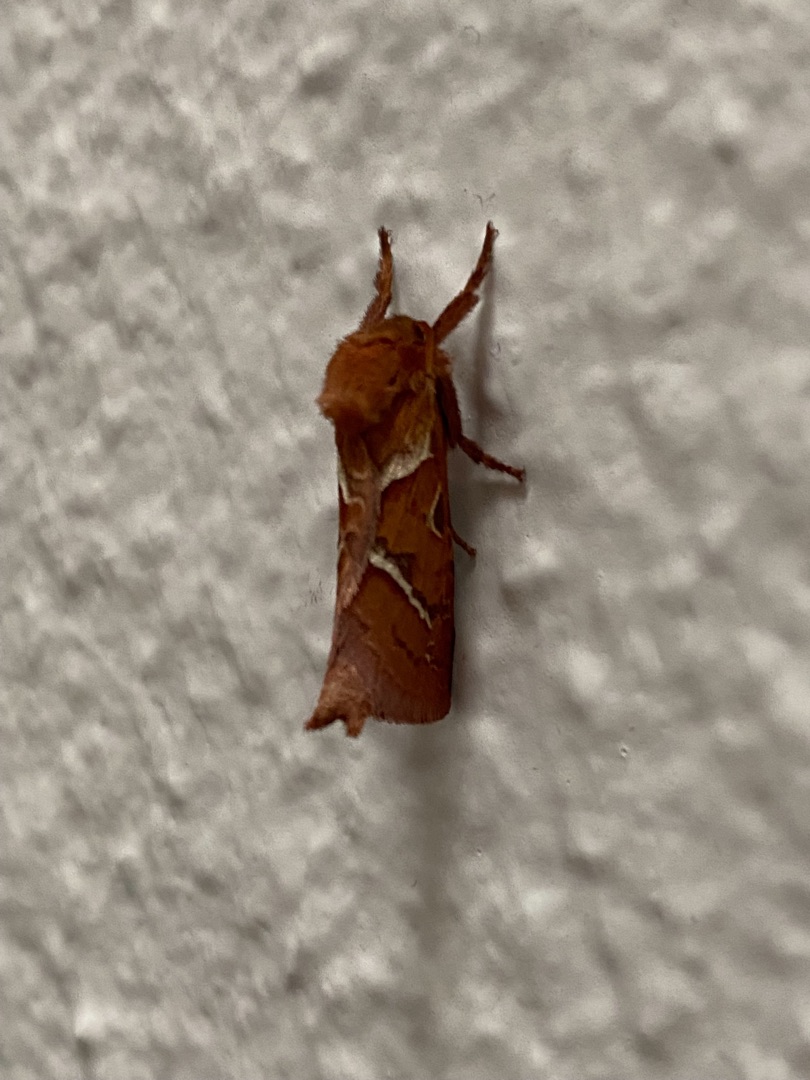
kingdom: Animalia
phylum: Arthropoda
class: Insecta
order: Lepidoptera
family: Hepialidae
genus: Triodia
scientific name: Triodia sylvina
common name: Skræpperodæder
